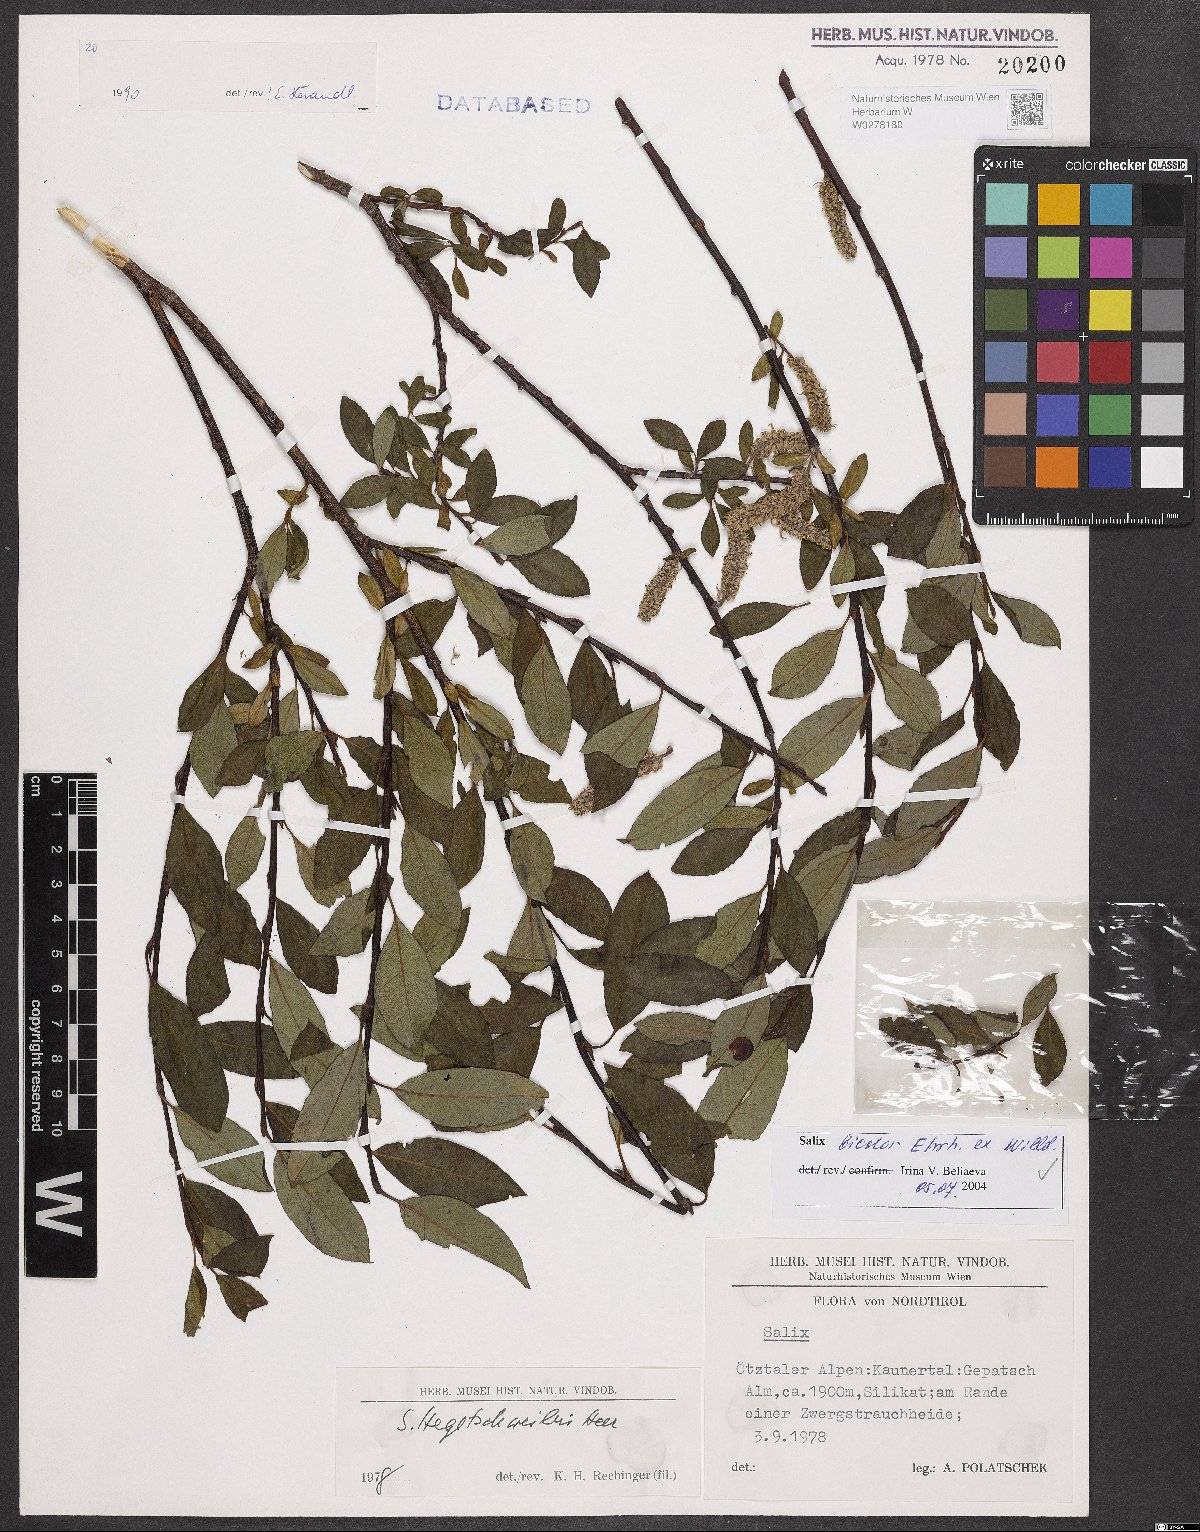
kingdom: Plantae
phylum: Tracheophyta
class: Magnoliopsida
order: Malpighiales
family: Salicaceae
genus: Salix
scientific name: Salix bicolor
